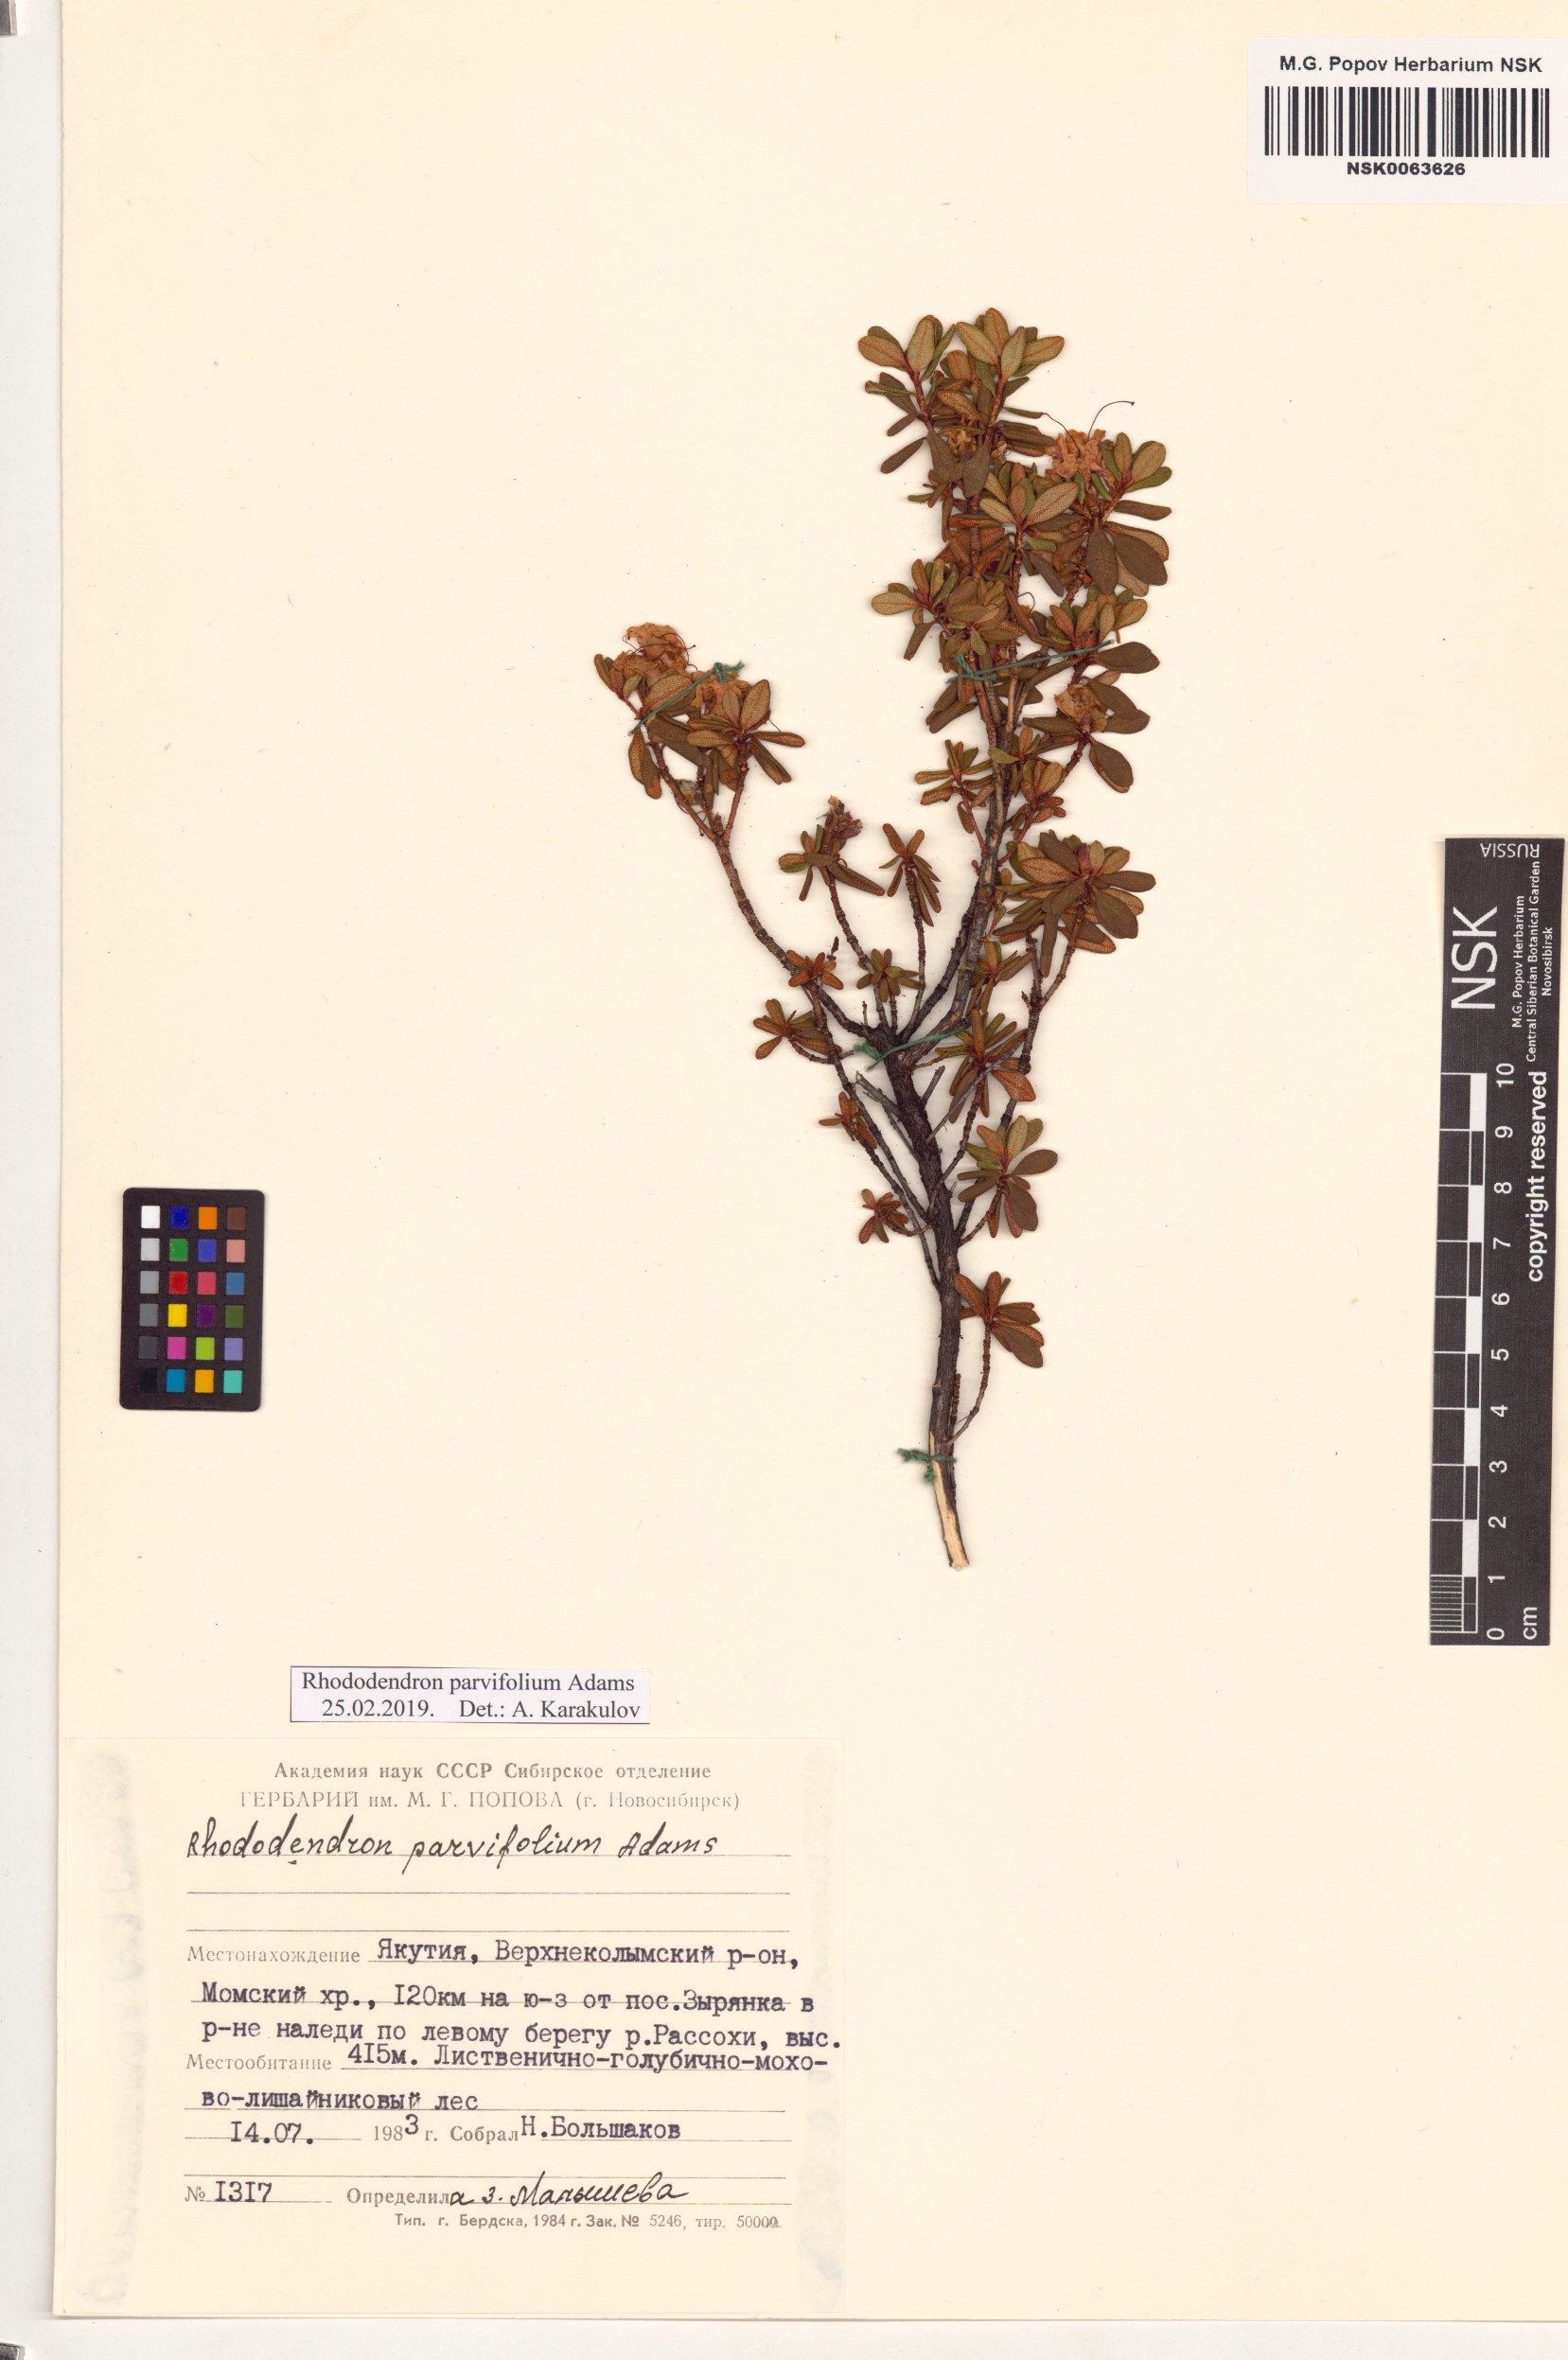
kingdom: Plantae
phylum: Tracheophyta
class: Magnoliopsida
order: Ericales
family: Ericaceae
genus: Rhododendron
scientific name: Rhododendron parvifolium
